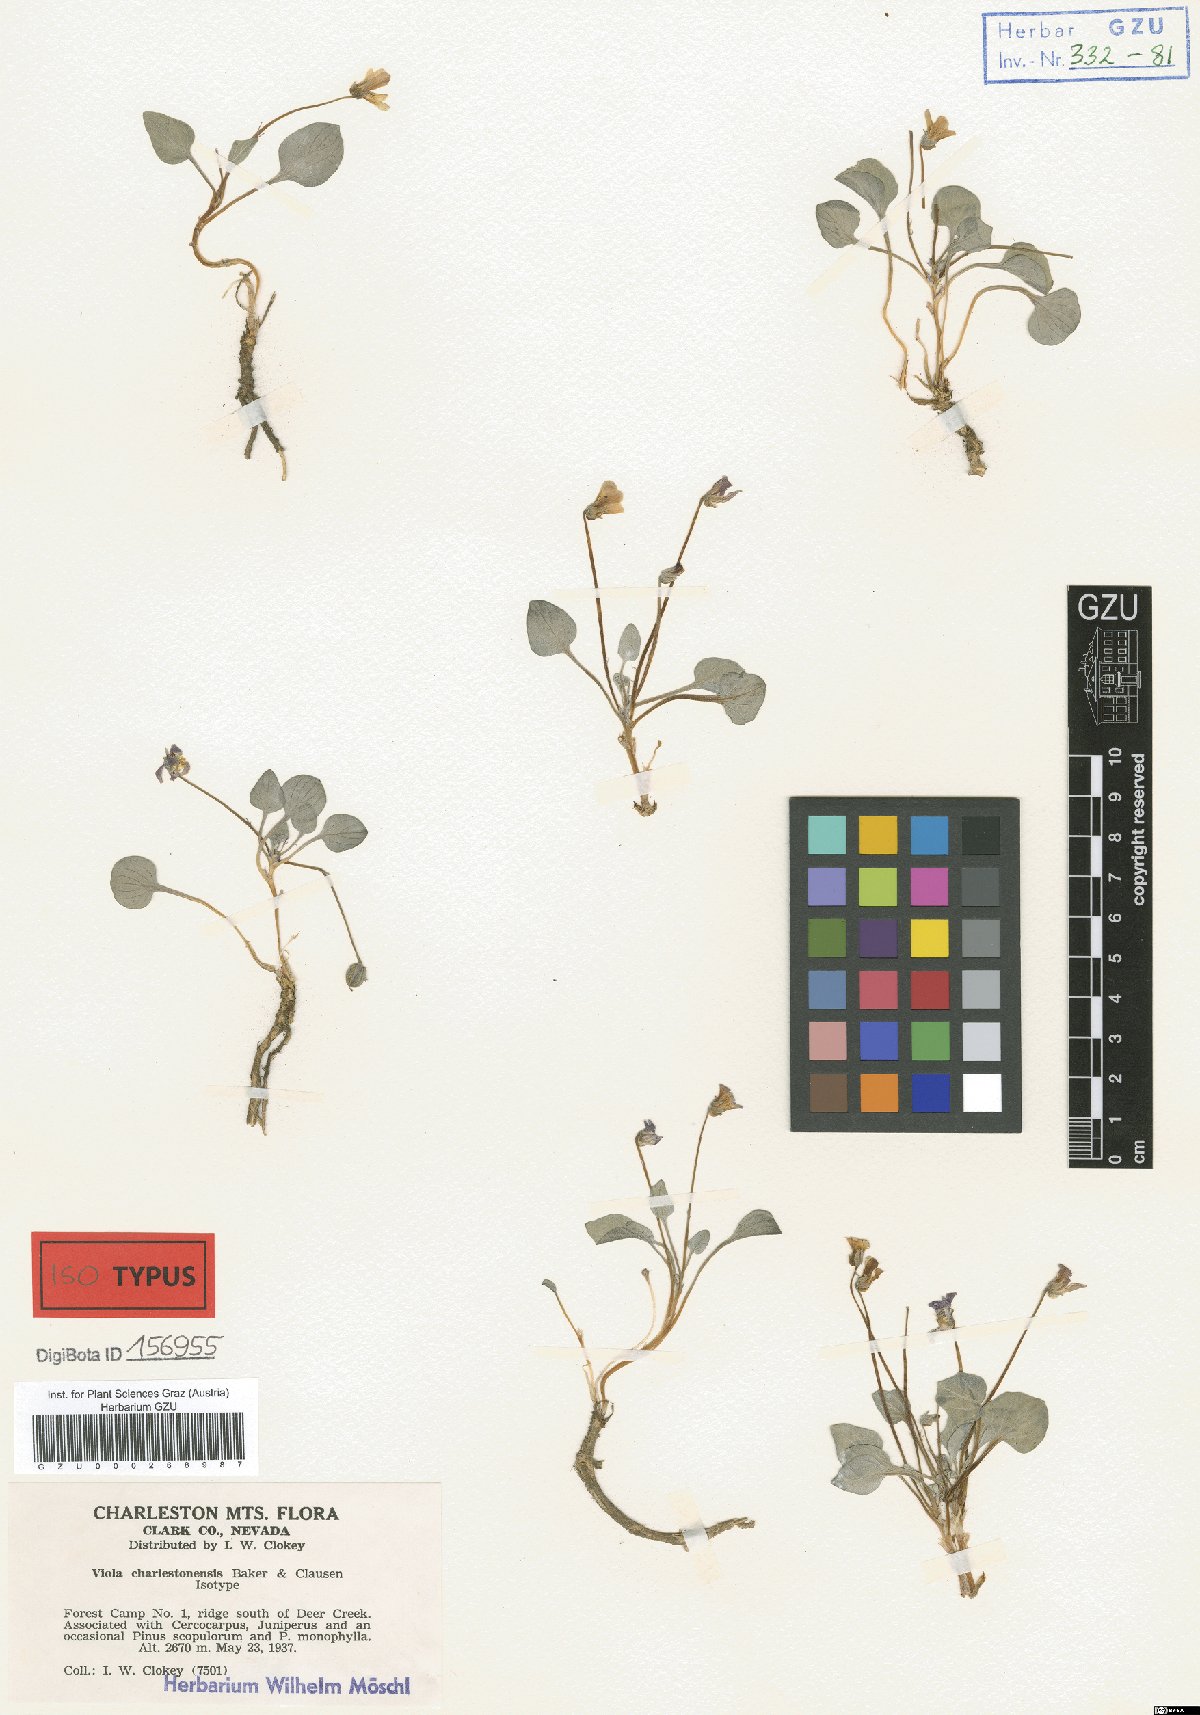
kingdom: Plantae
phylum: Tracheophyta
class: Magnoliopsida
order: Malpighiales
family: Violaceae
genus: Viola
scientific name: Viola charlestonensis
